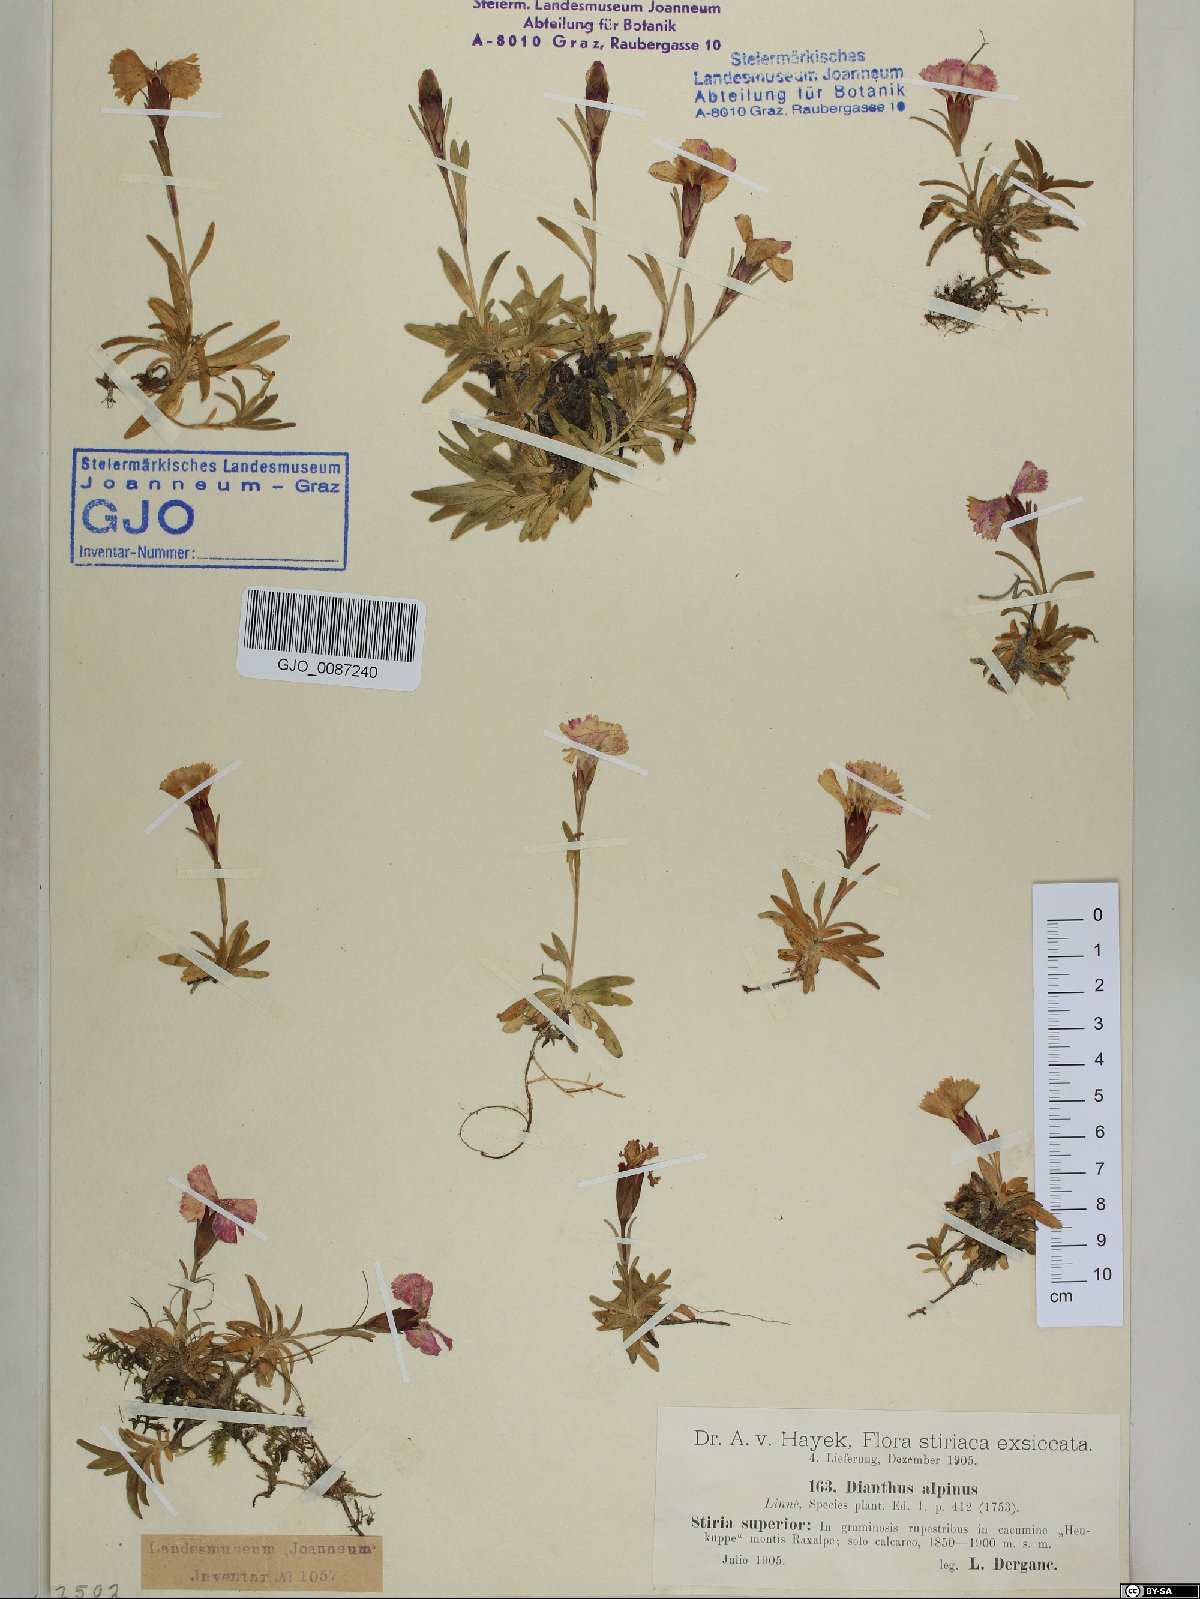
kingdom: Plantae
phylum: Tracheophyta
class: Magnoliopsida
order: Caryophyllales
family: Caryophyllaceae
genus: Dianthus
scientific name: Dianthus alpinus
